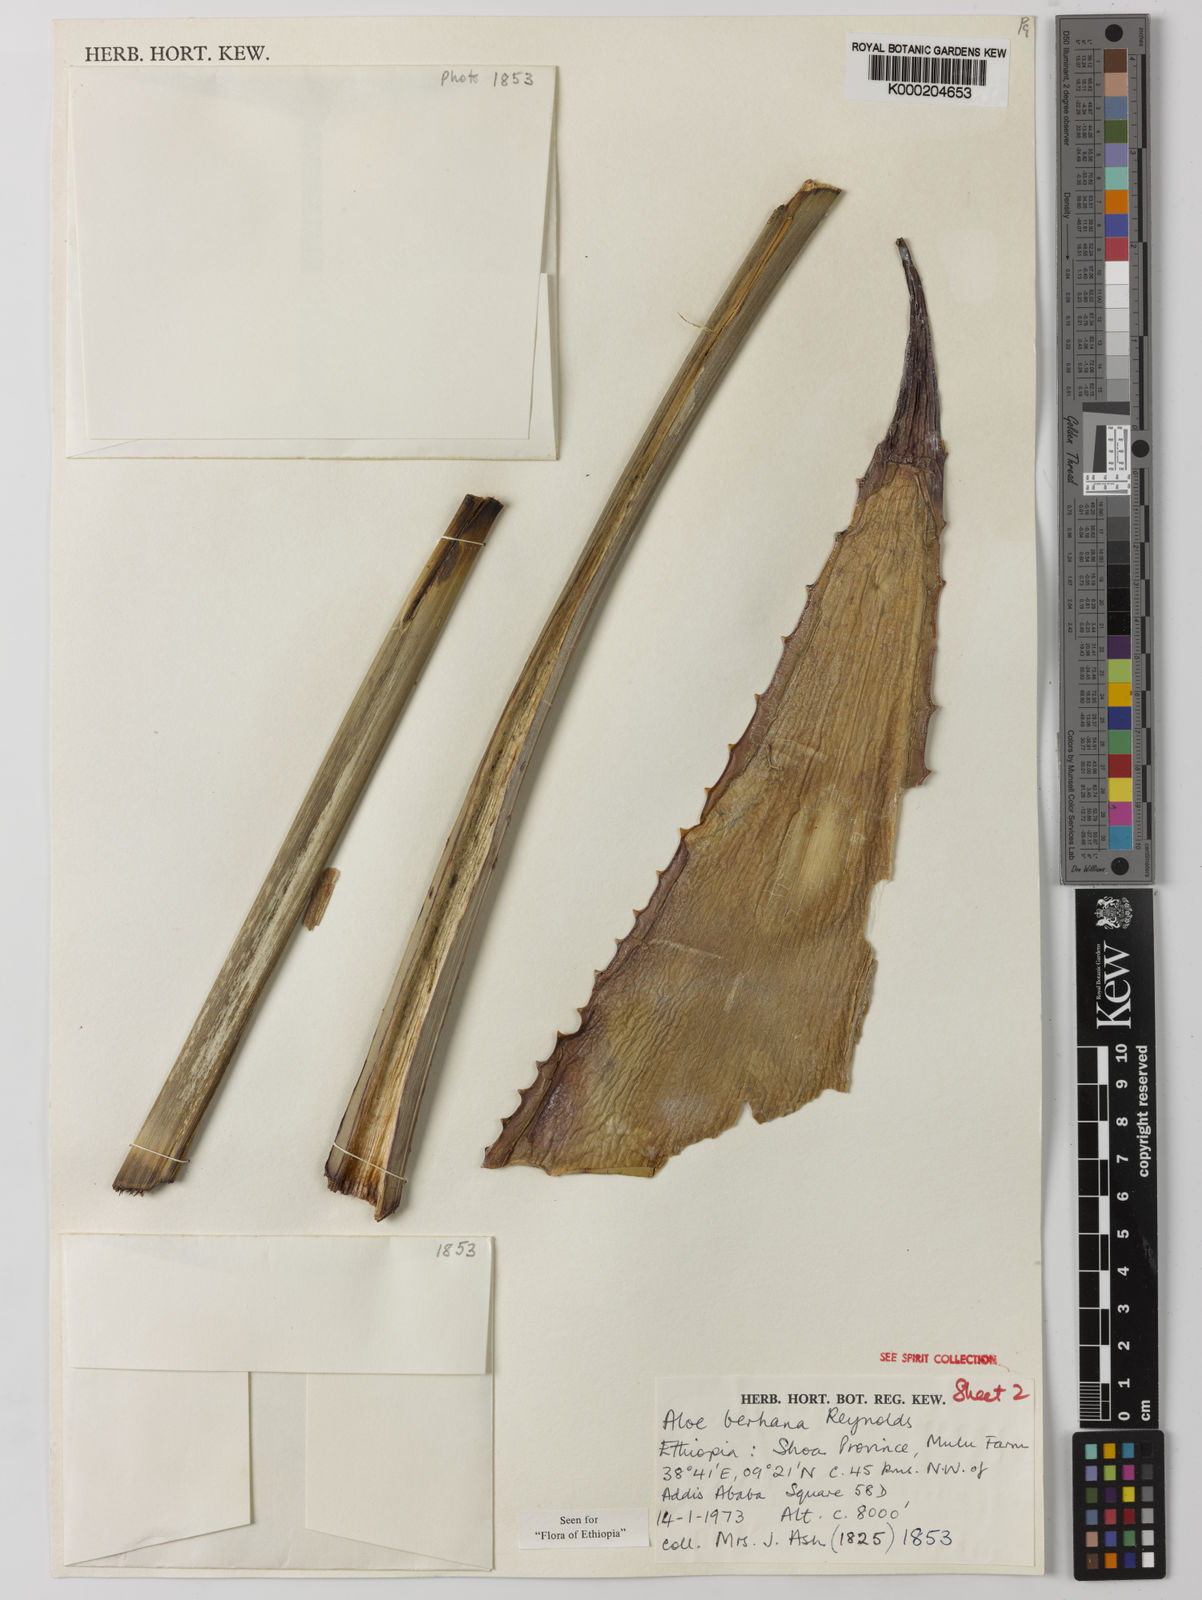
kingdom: Plantae
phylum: Tracheophyta
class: Liliopsida
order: Asparagales
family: Asphodelaceae
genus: Aloe
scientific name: Aloe debrana
